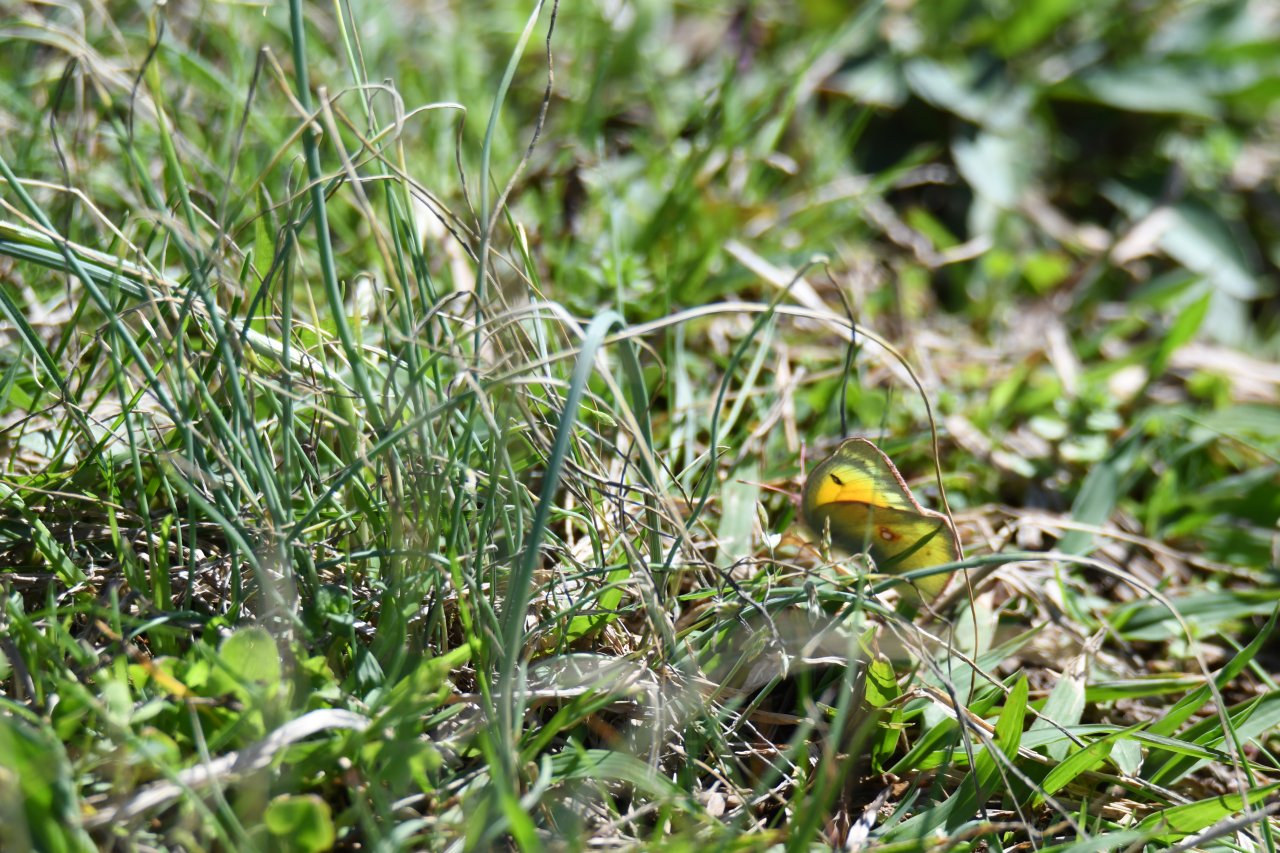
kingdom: Animalia
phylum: Arthropoda
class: Insecta
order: Lepidoptera
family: Pieridae
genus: Colias
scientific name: Colias eurytheme
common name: Orange Sulphur
